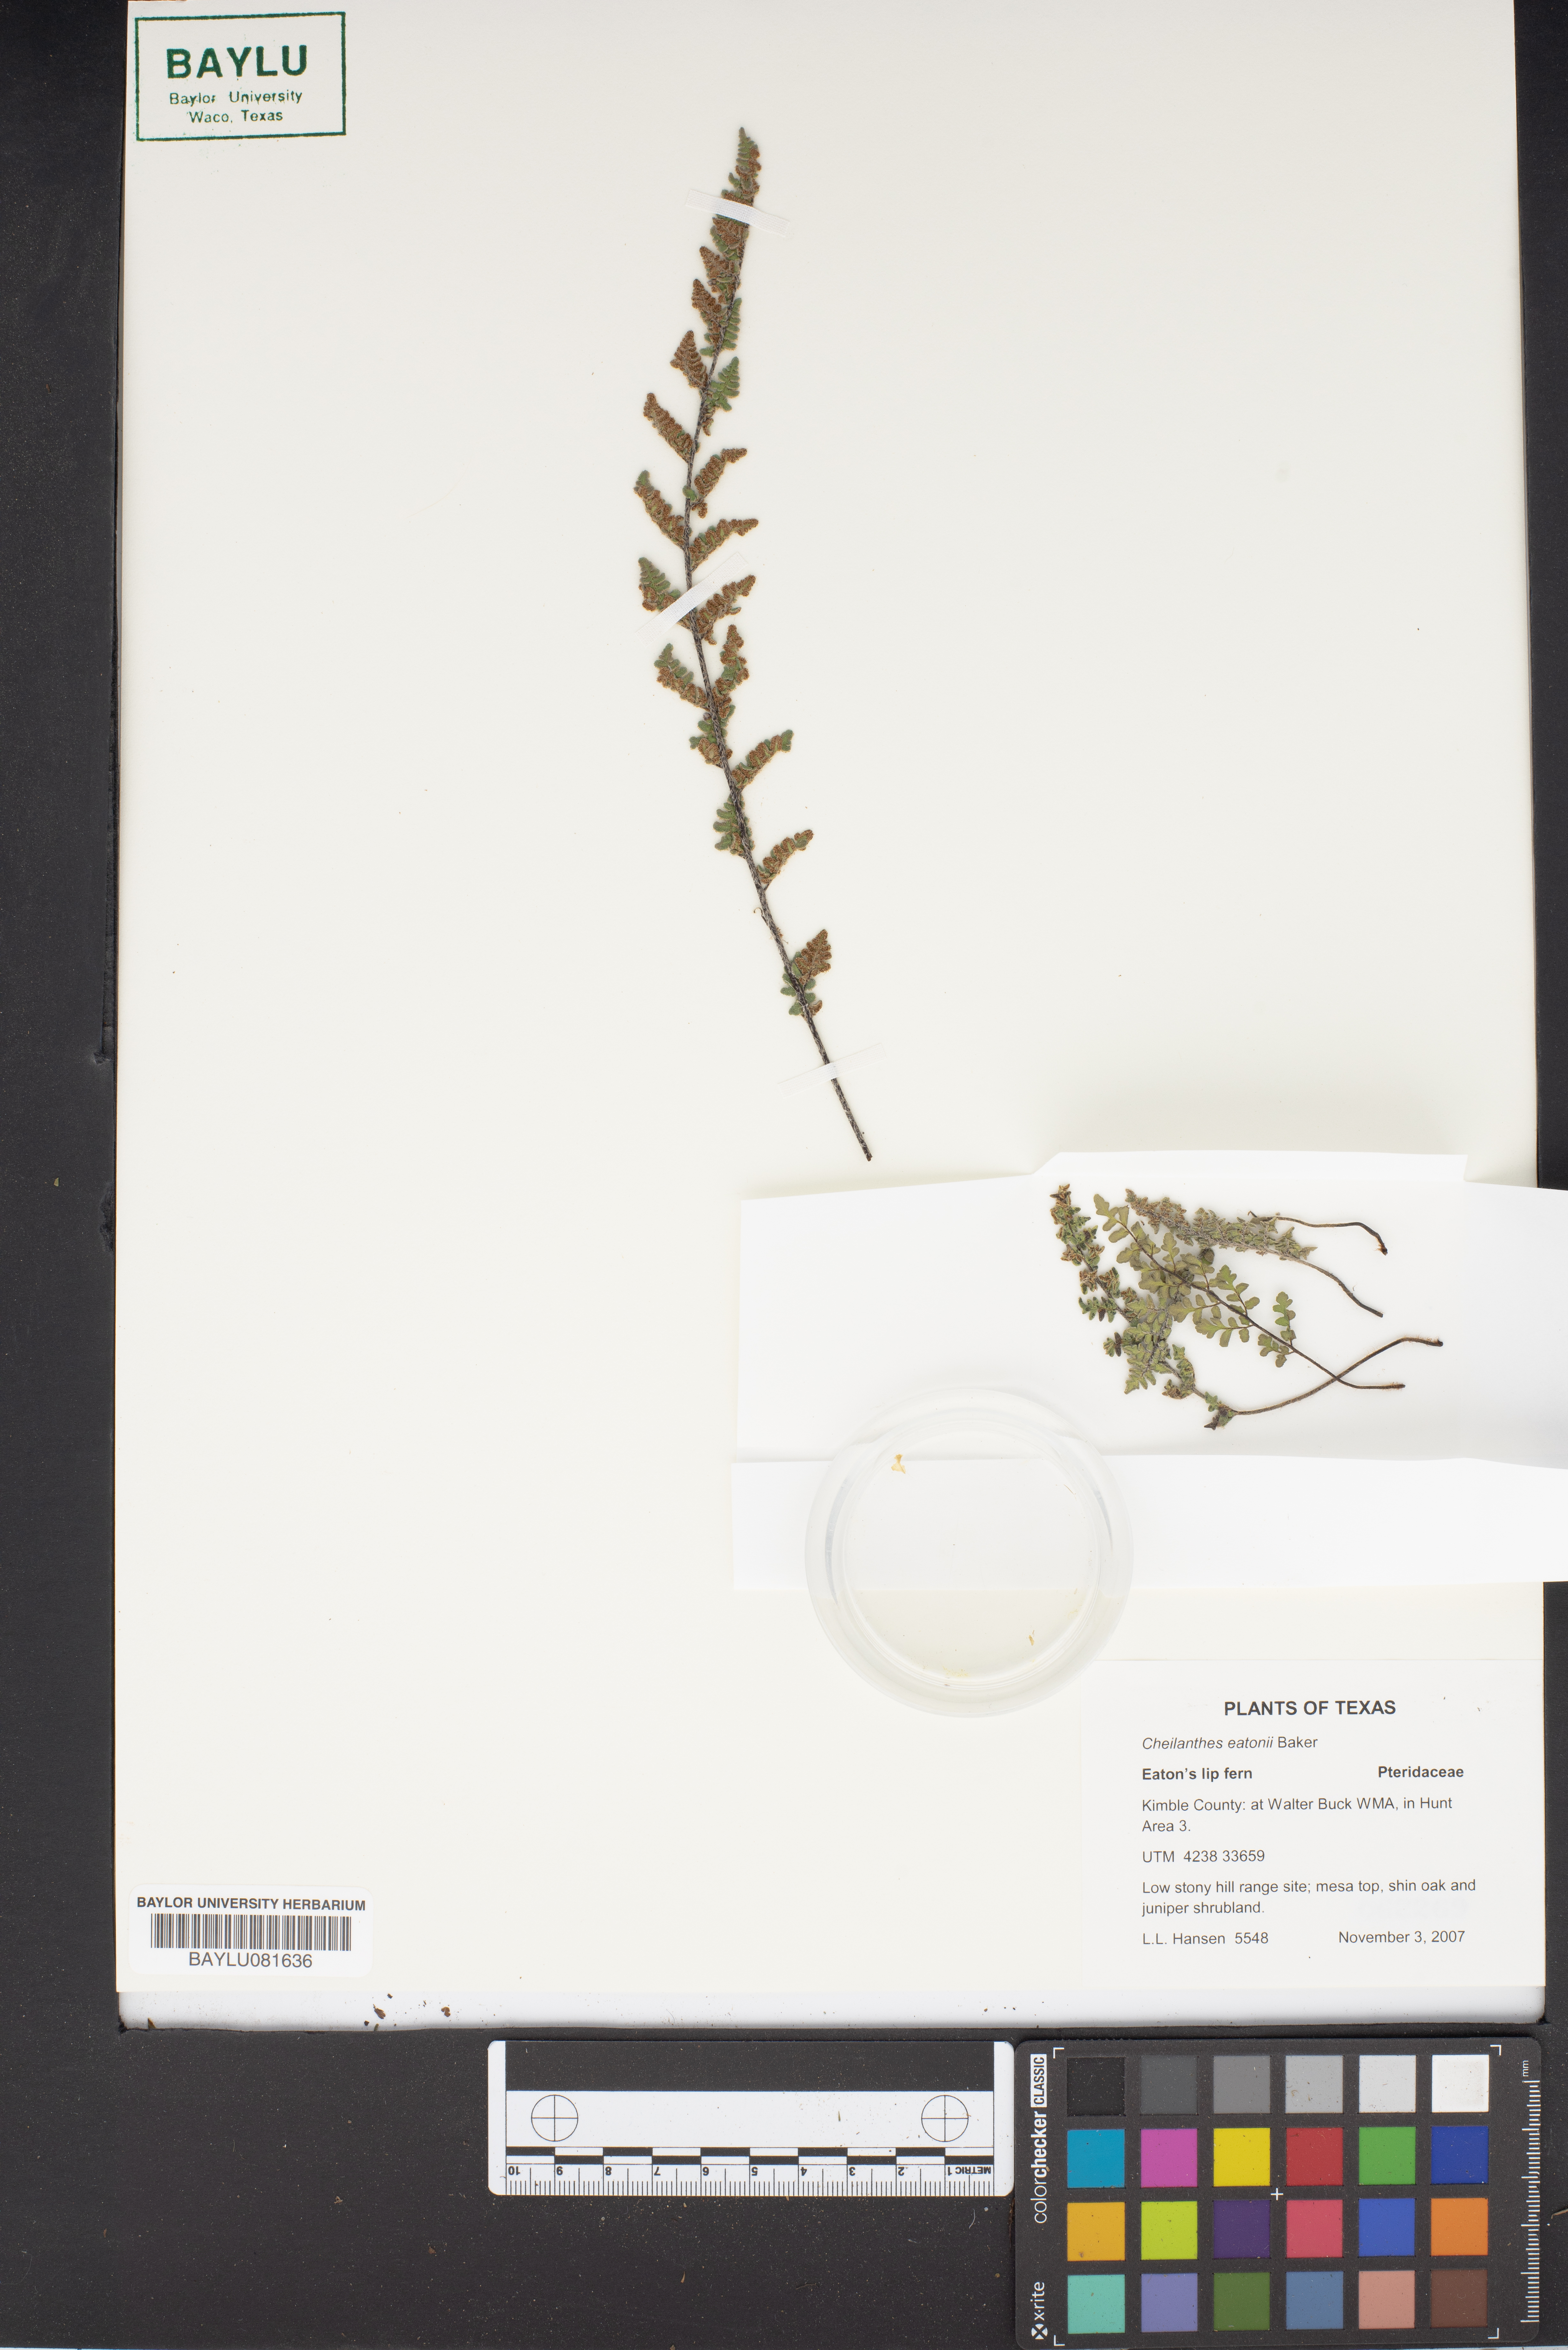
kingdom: Plantae
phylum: Tracheophyta
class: Polypodiopsida
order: Polypodiales
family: Pteridaceae
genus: Myriopteris
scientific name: Myriopteris rufa
